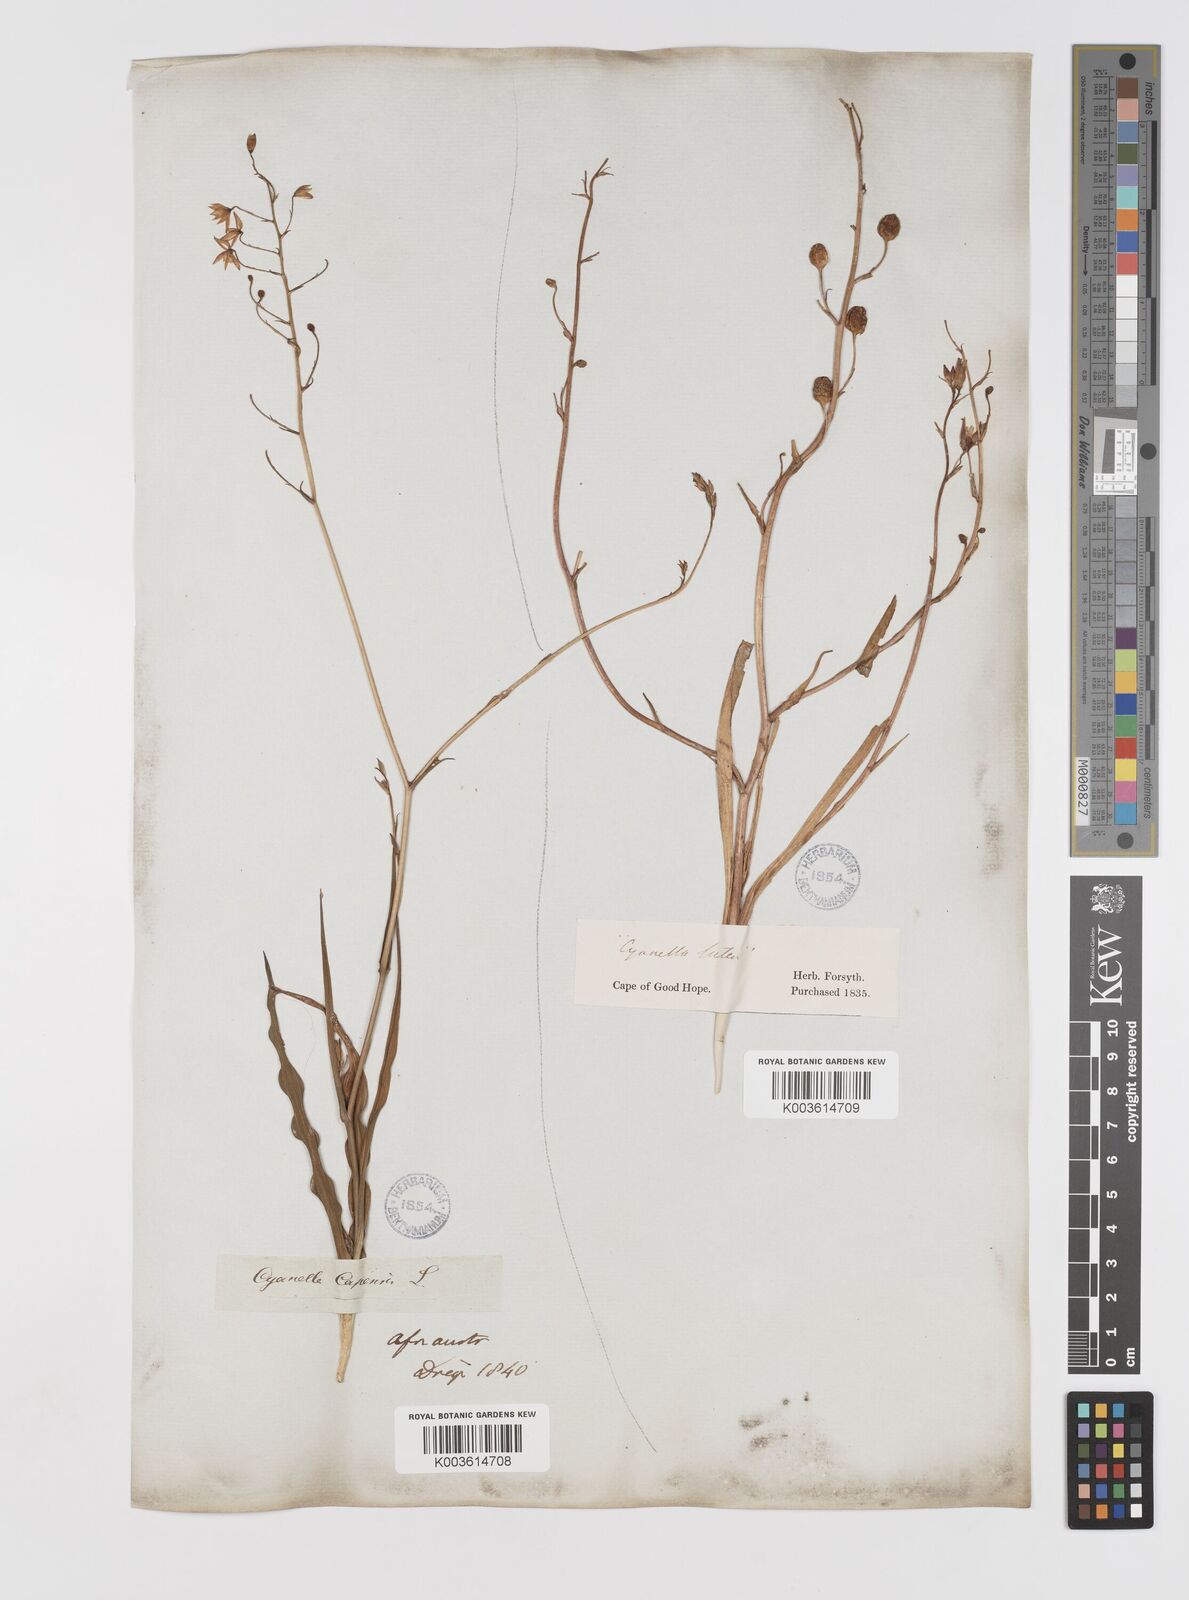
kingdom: Plantae
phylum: Tracheophyta
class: Liliopsida
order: Asparagales
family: Tecophilaeaceae
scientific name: Tecophilaeaceae
